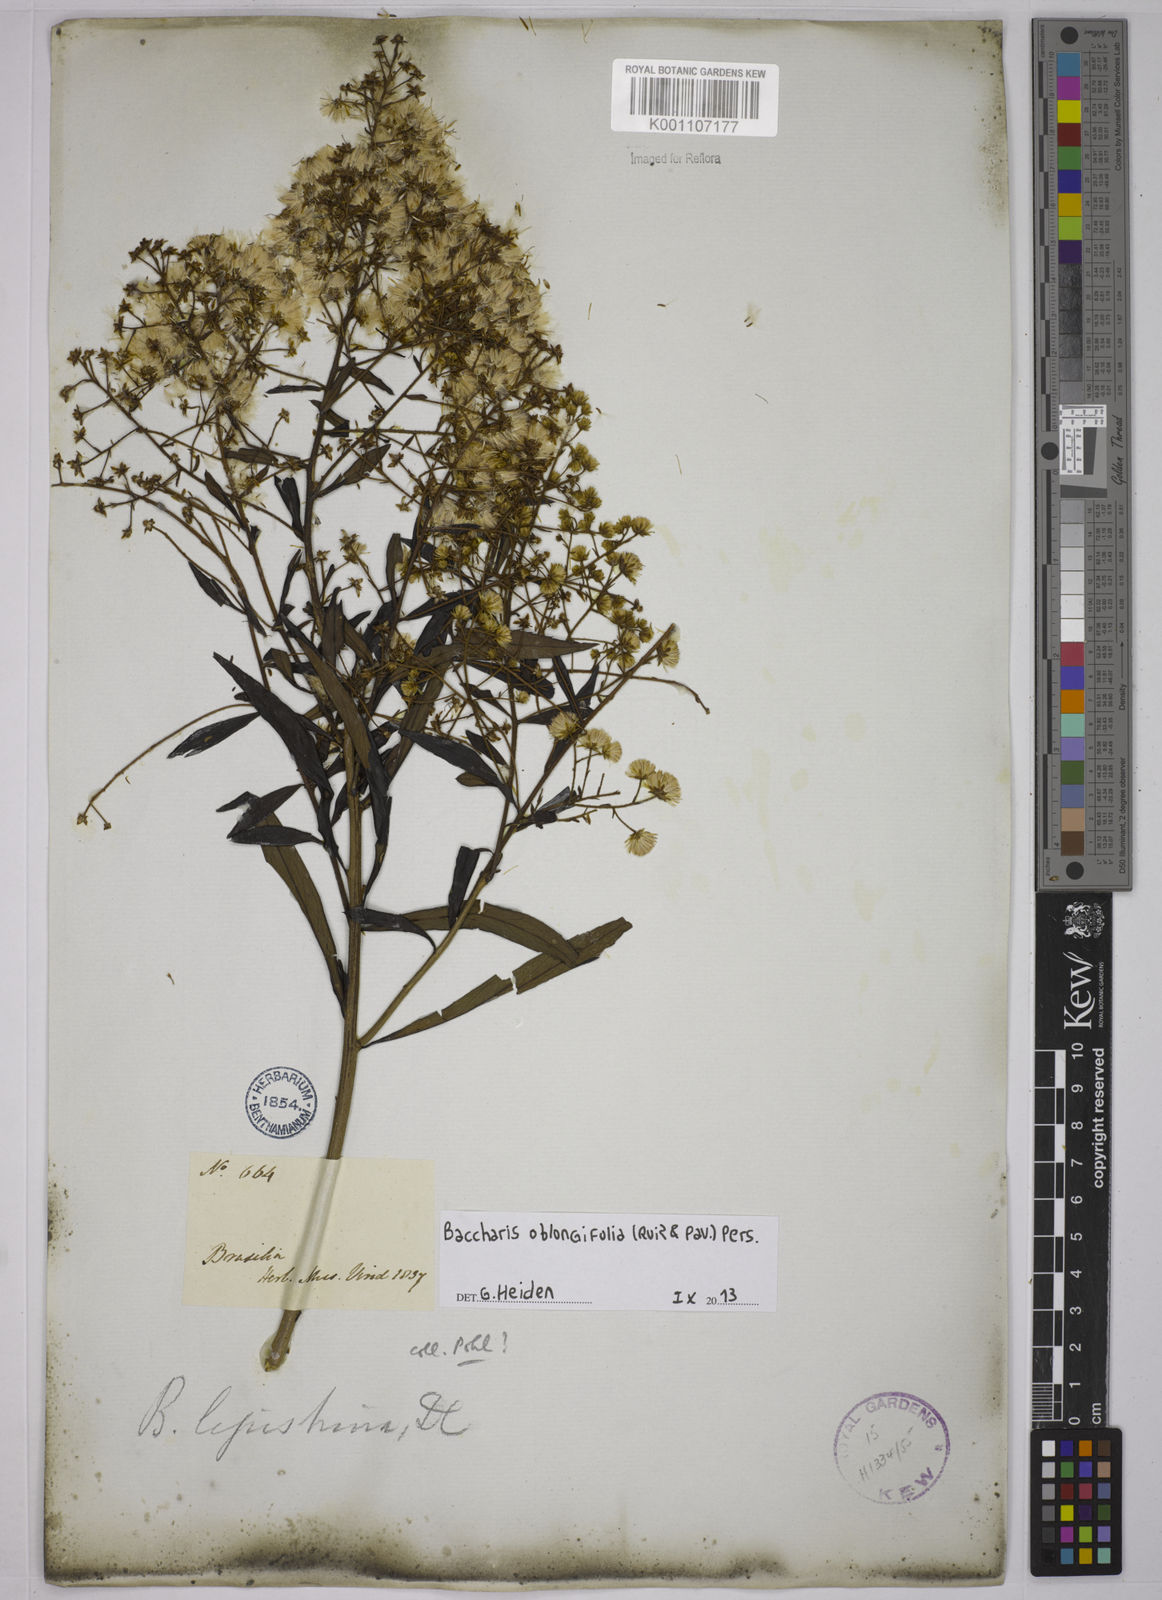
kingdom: Plantae
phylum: Tracheophyta
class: Magnoliopsida
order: Asterales
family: Asteraceae
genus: Baccharis
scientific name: Baccharis oblongifolia
